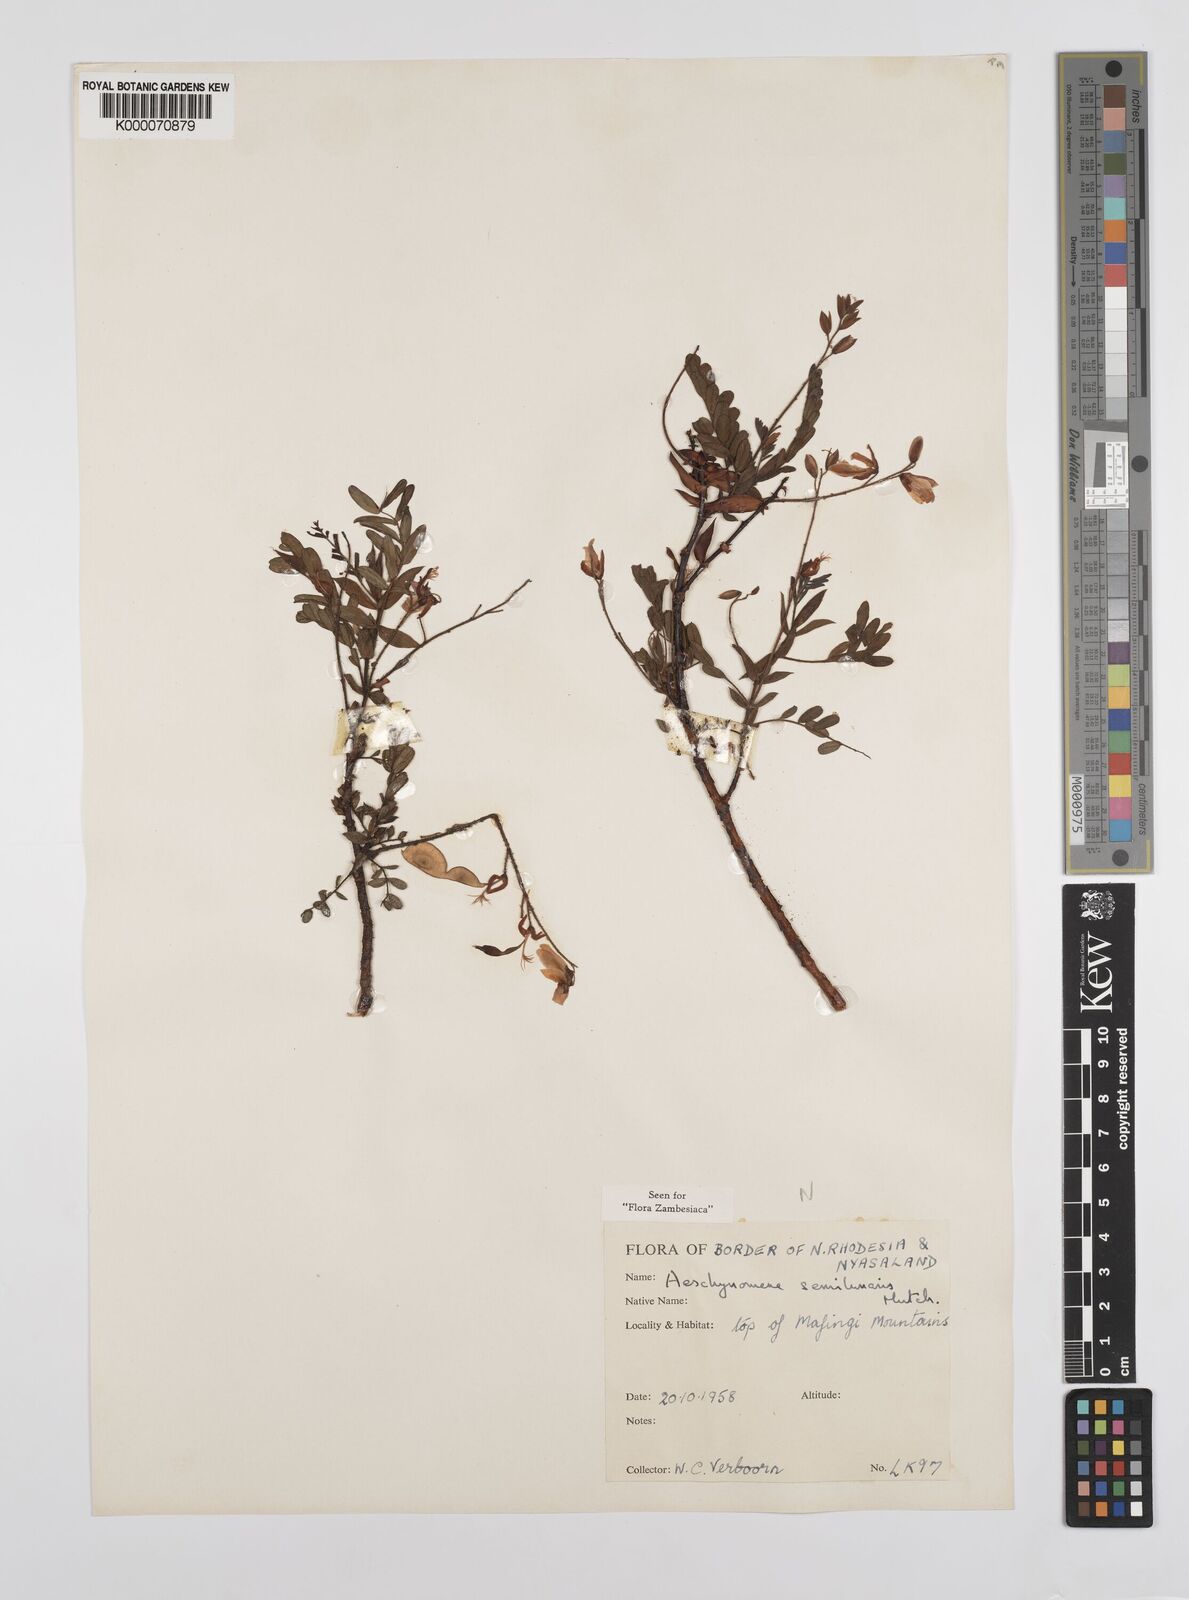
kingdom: Plantae
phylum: Tracheophyta
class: Magnoliopsida
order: Fabales
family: Fabaceae
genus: Aeschynomene
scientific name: Aeschynomene semilunaris
